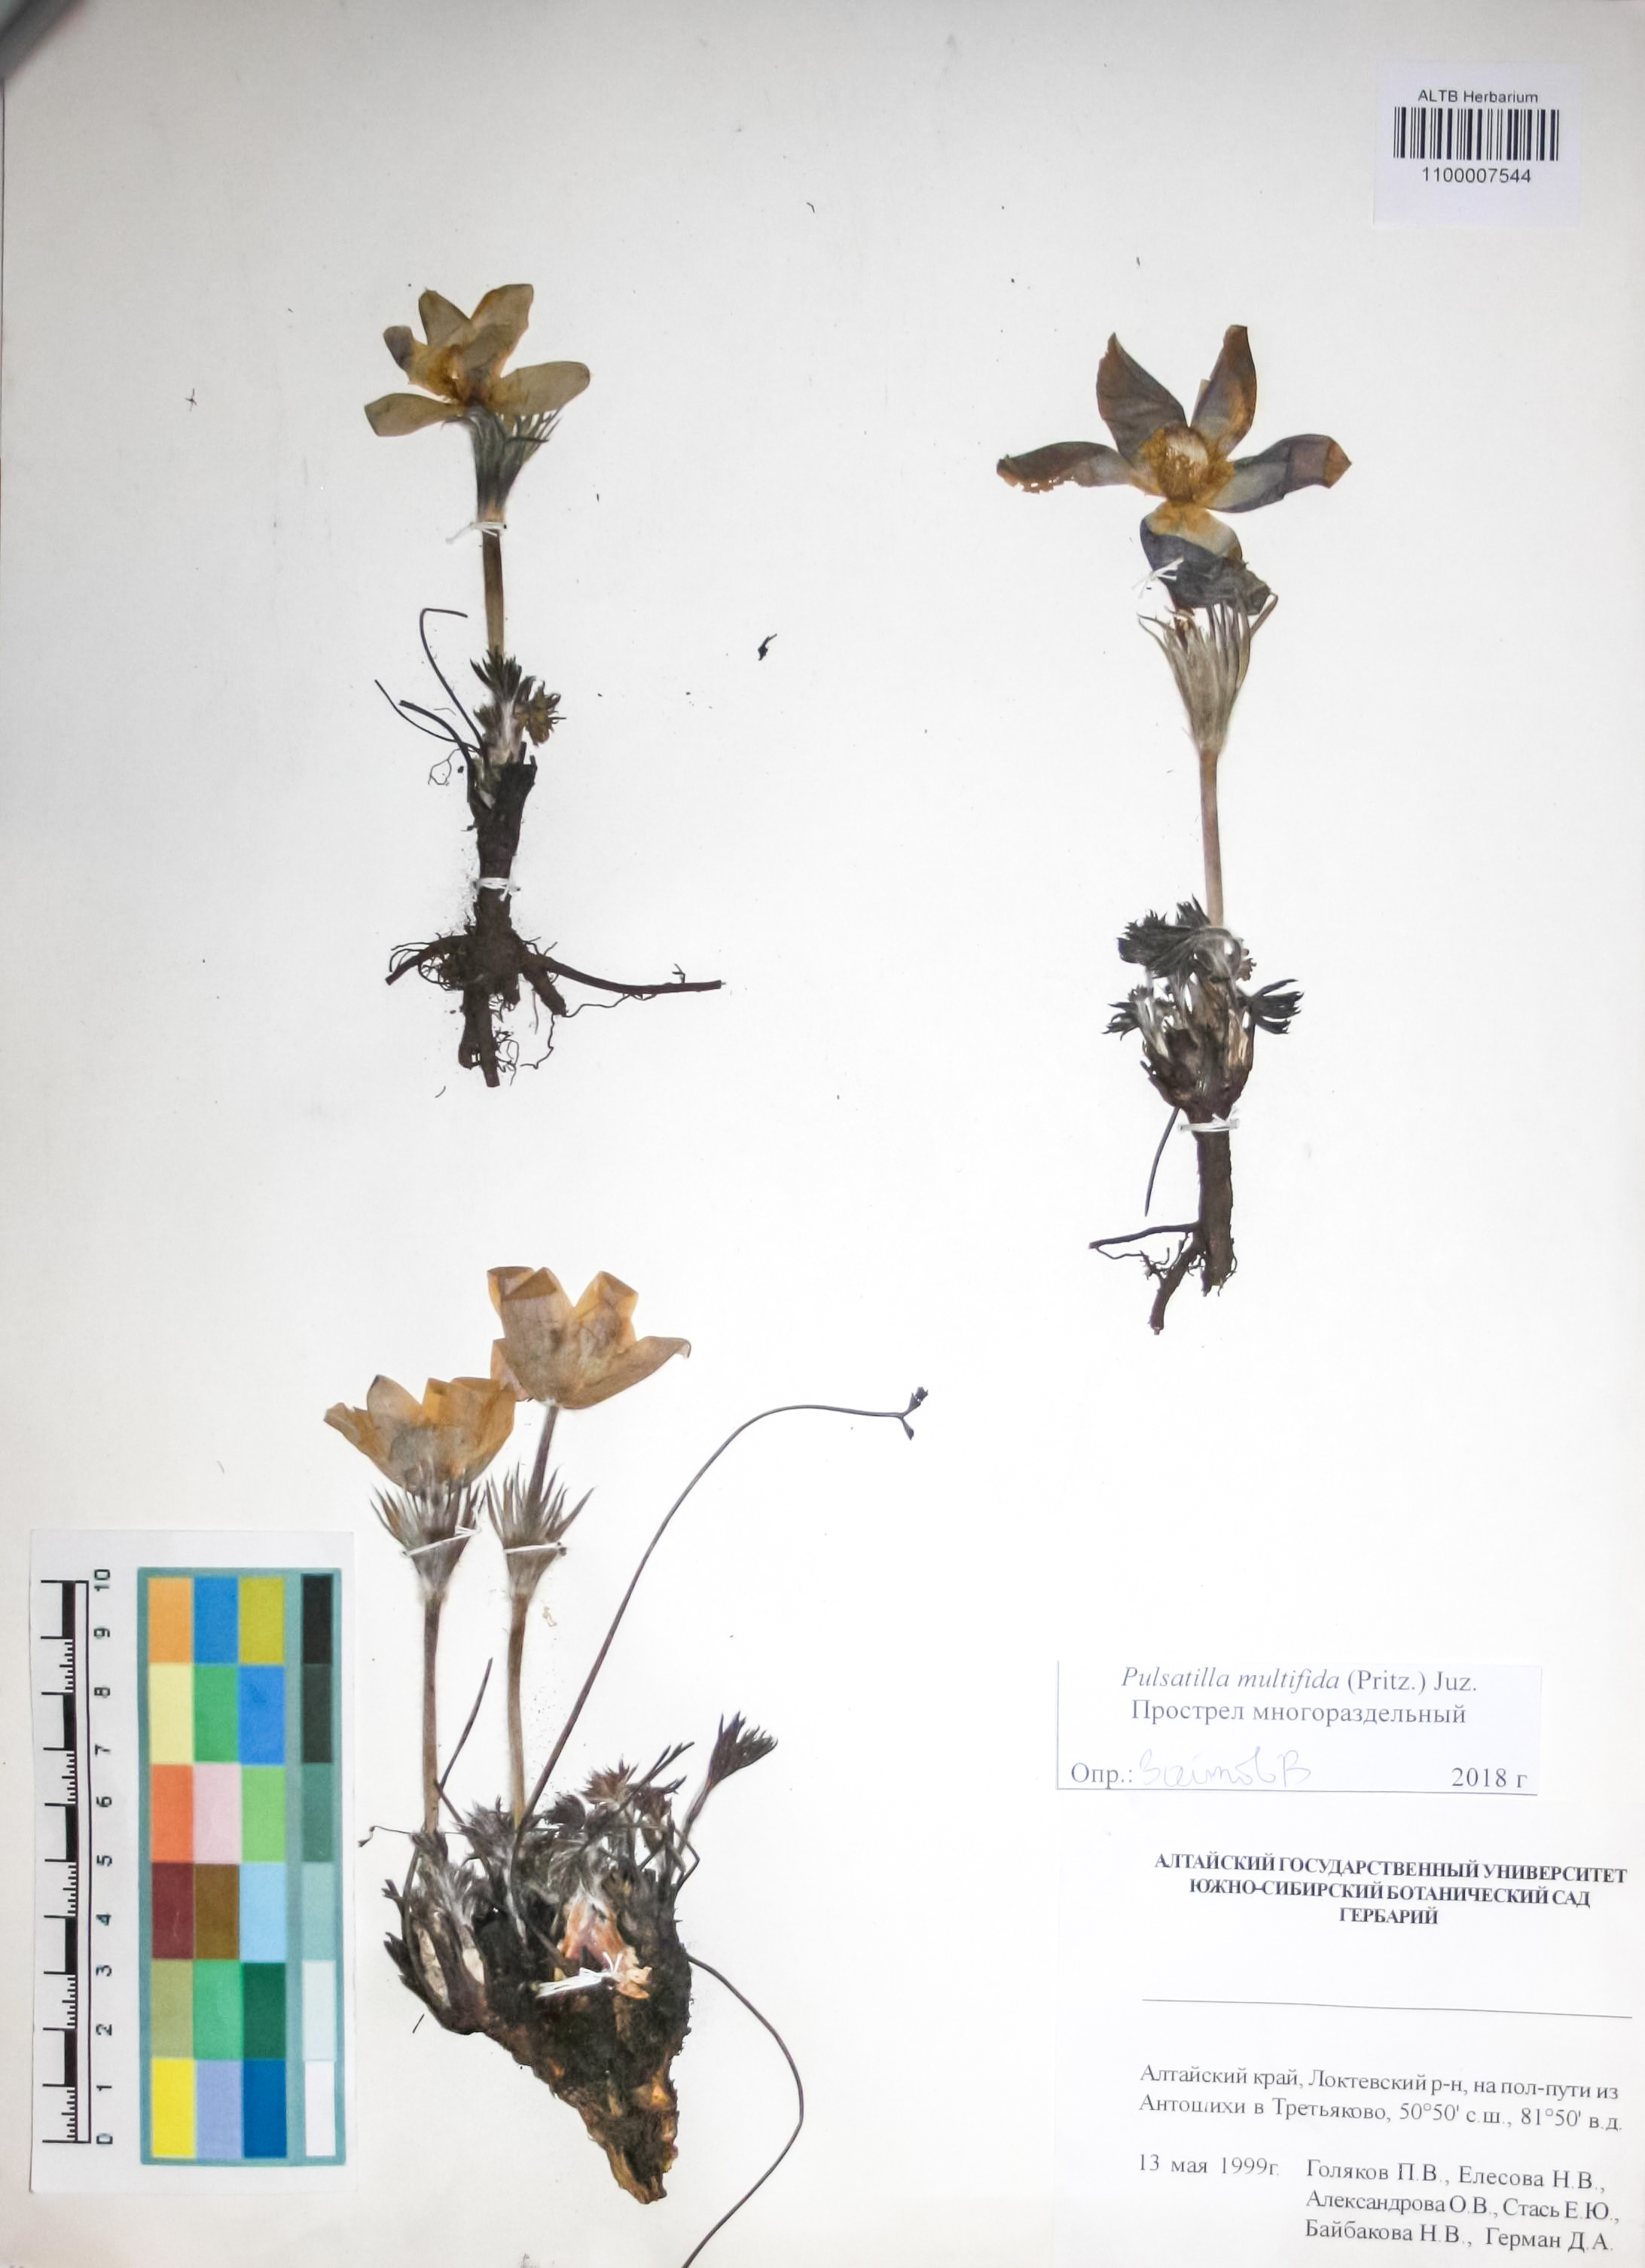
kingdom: Plantae
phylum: Tracheophyta
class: Magnoliopsida
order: Ranunculales
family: Ranunculaceae
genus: Pulsatilla
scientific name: Pulsatilla patens
